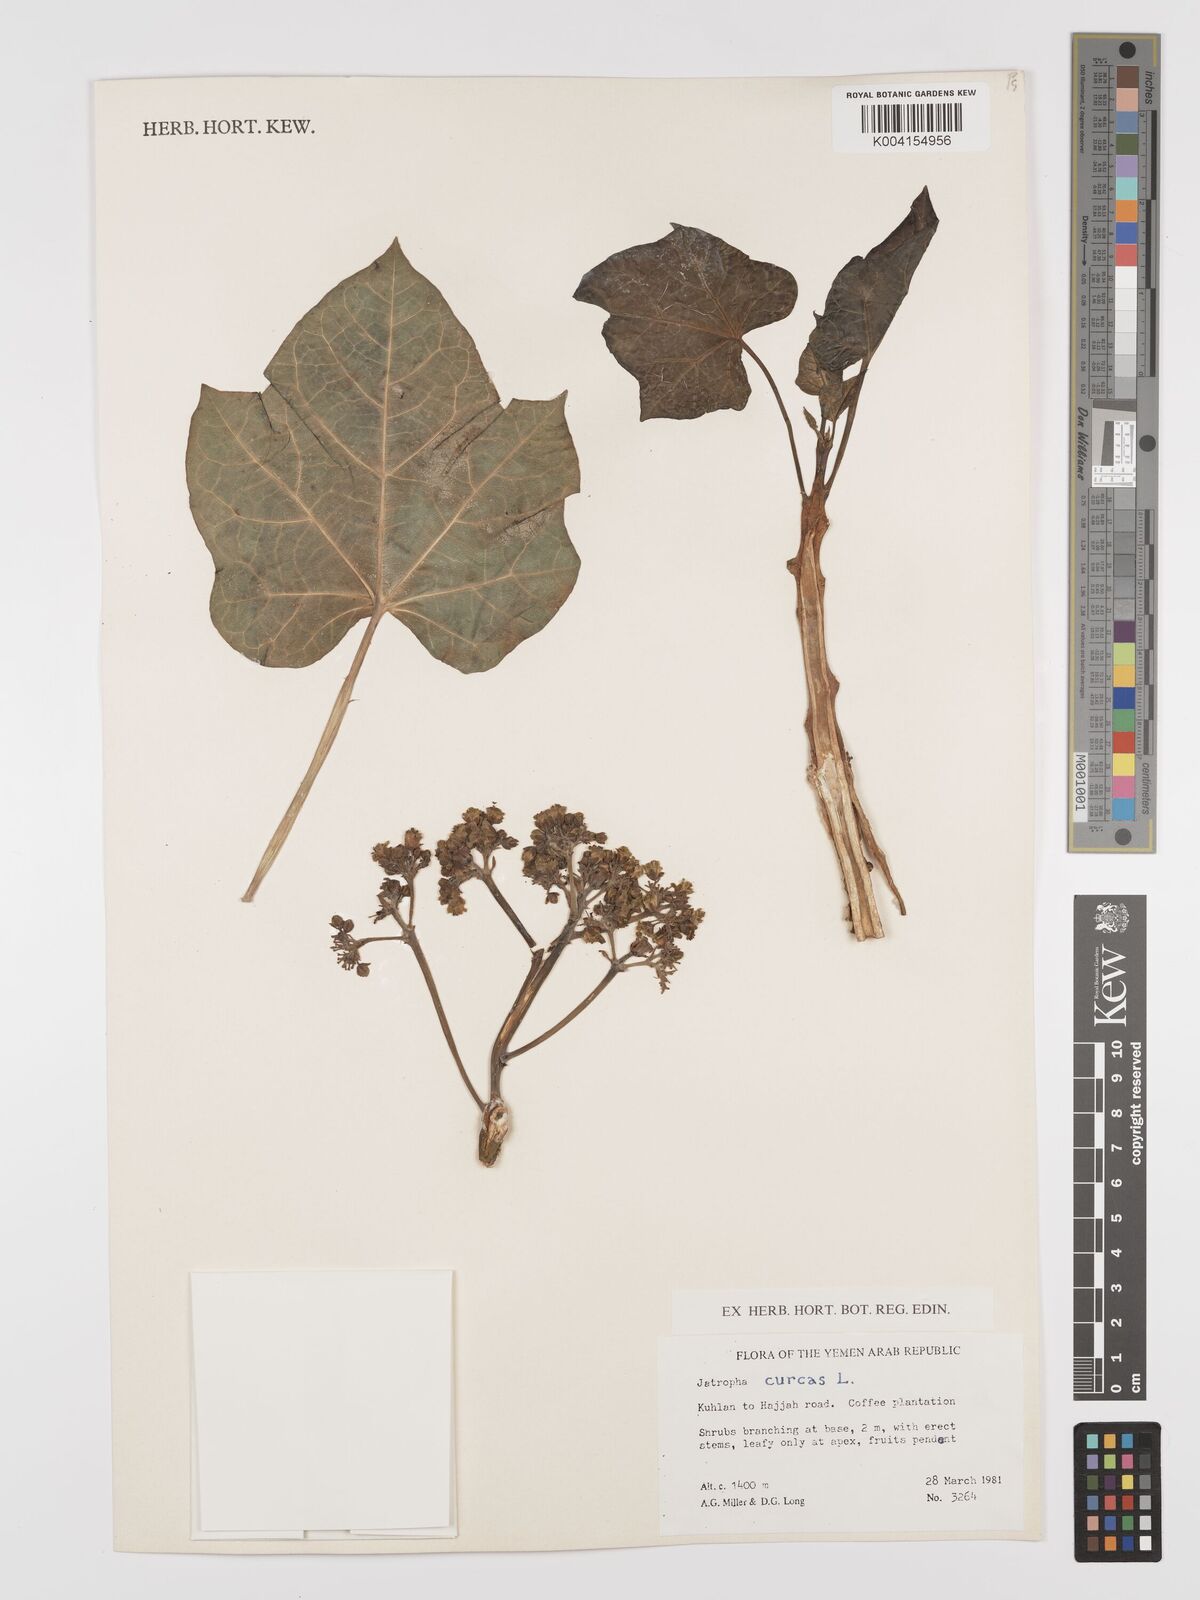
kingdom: Plantae
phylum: Tracheophyta
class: Magnoliopsida
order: Malpighiales
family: Euphorbiaceae
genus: Jatropha
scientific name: Jatropha curcas
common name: Barbados nut
